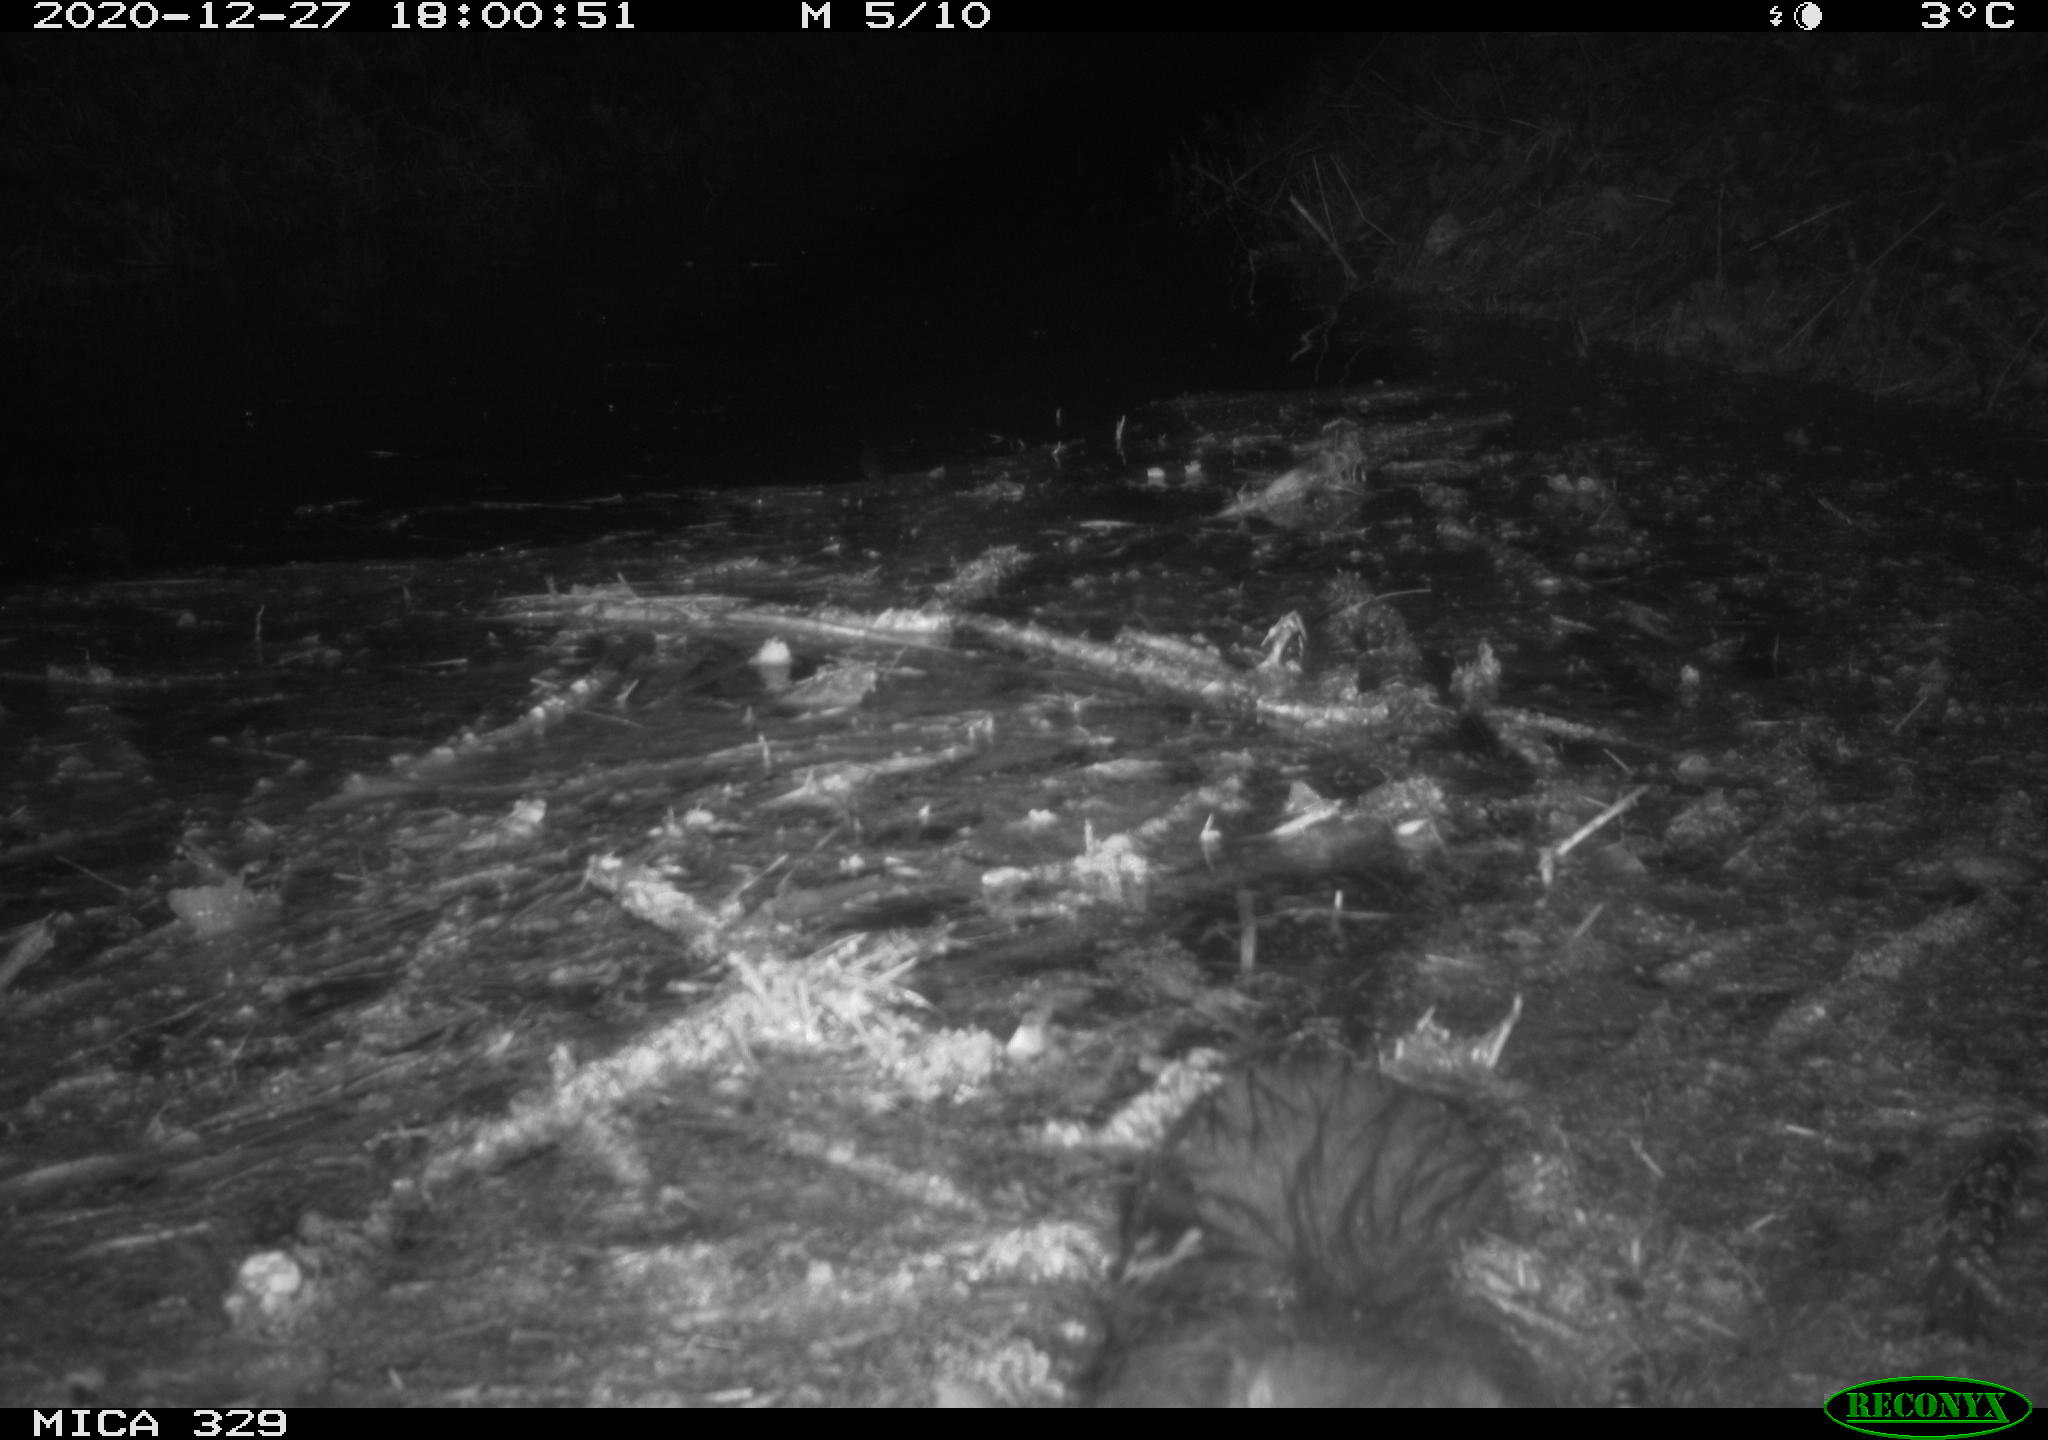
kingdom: Animalia
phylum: Chordata
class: Mammalia
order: Rodentia
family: Myocastoridae
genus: Myocastor
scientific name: Myocastor coypus
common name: Coypu
